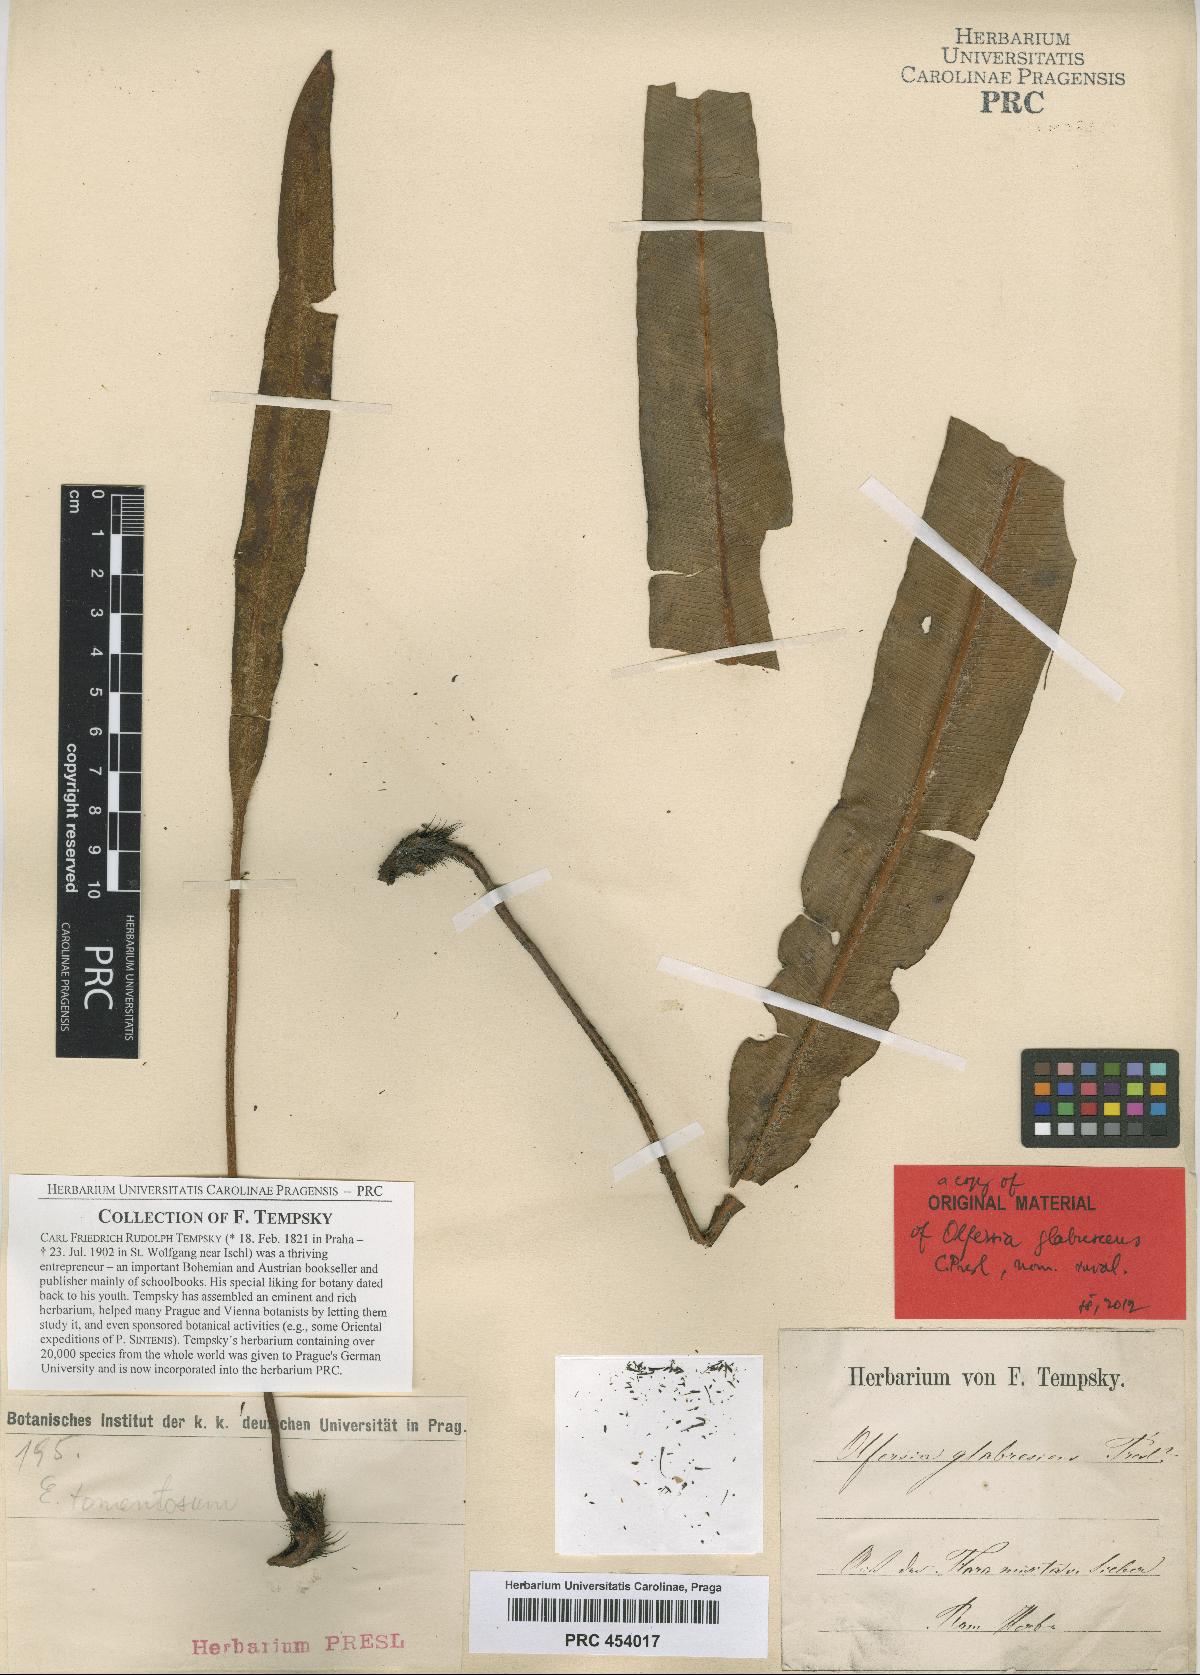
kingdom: Plantae
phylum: Tracheophyta
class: Polypodiopsida
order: Polypodiales
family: Dryopteridaceae
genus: Elaphoglossum
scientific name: Elaphoglossum heterolepis
